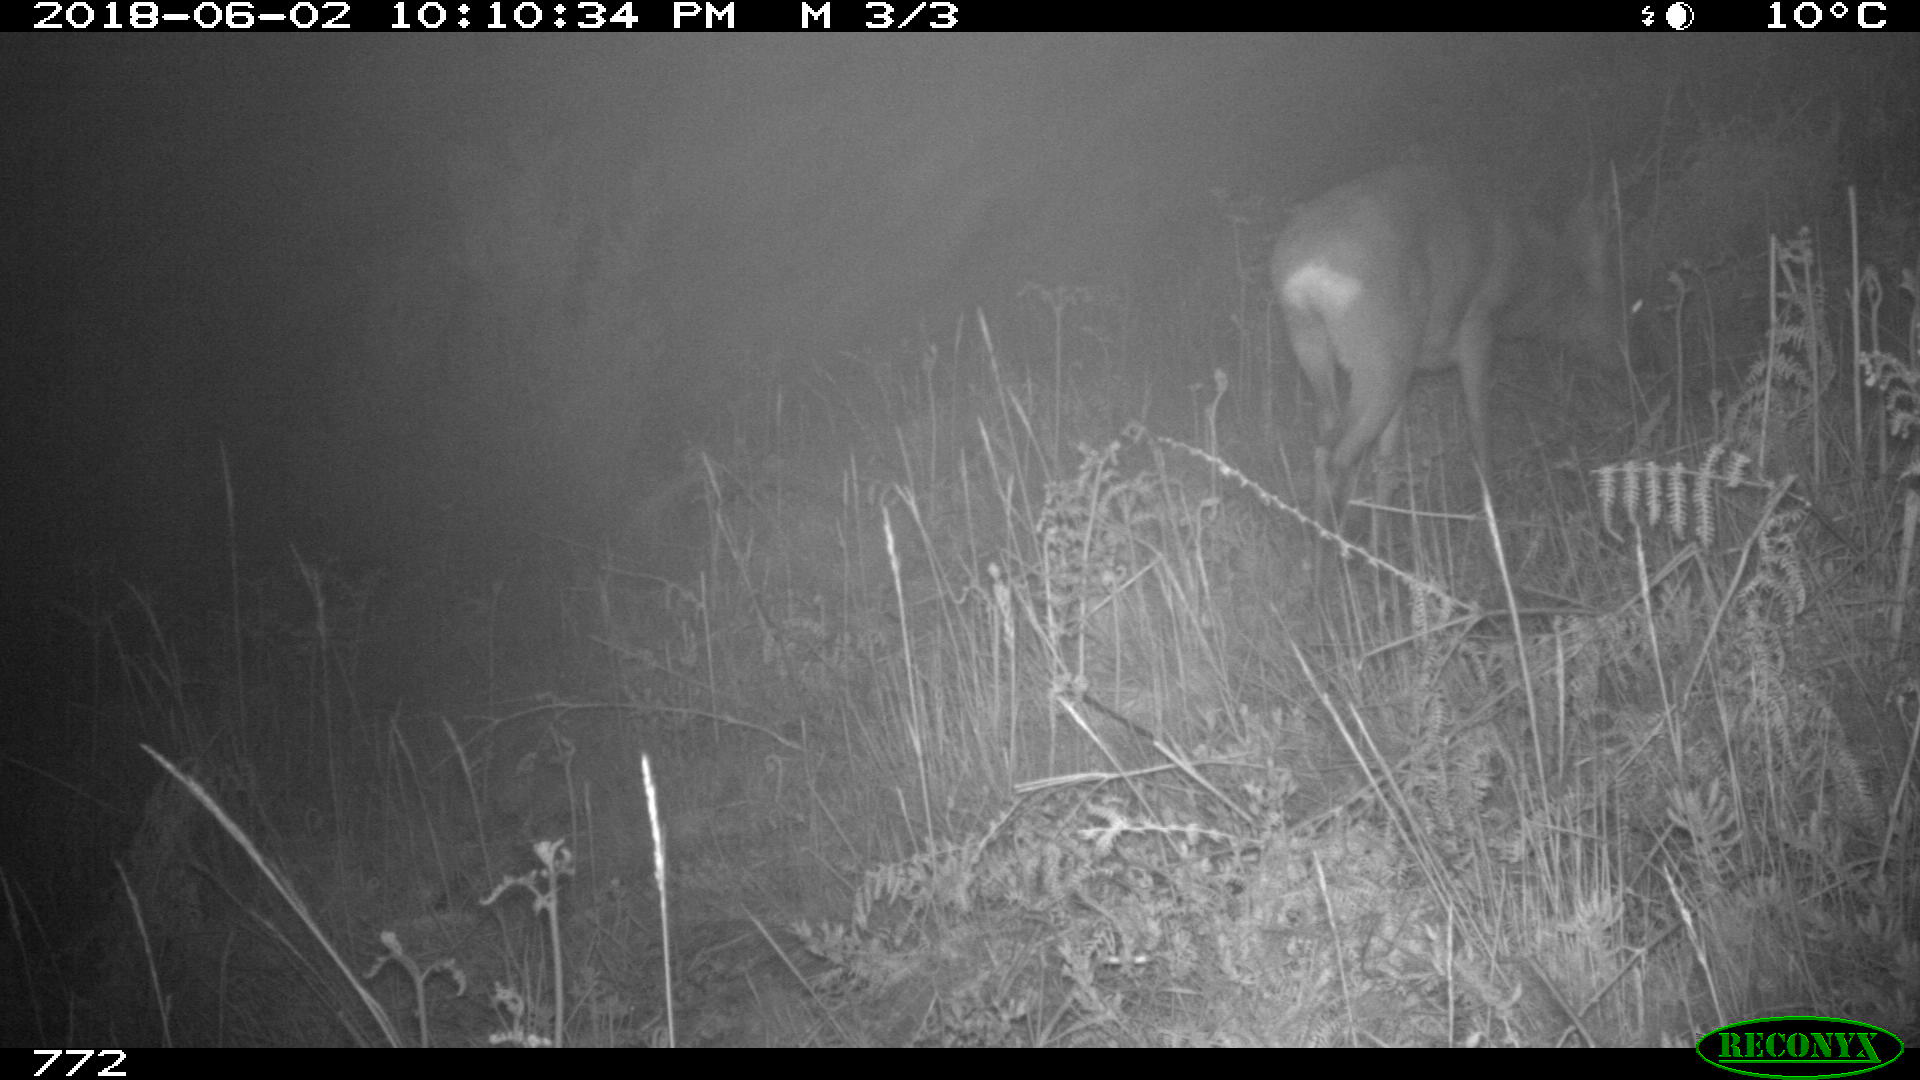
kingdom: Animalia
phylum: Chordata
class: Mammalia
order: Artiodactyla
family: Cervidae
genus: Capreolus
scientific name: Capreolus capreolus
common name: Western roe deer
